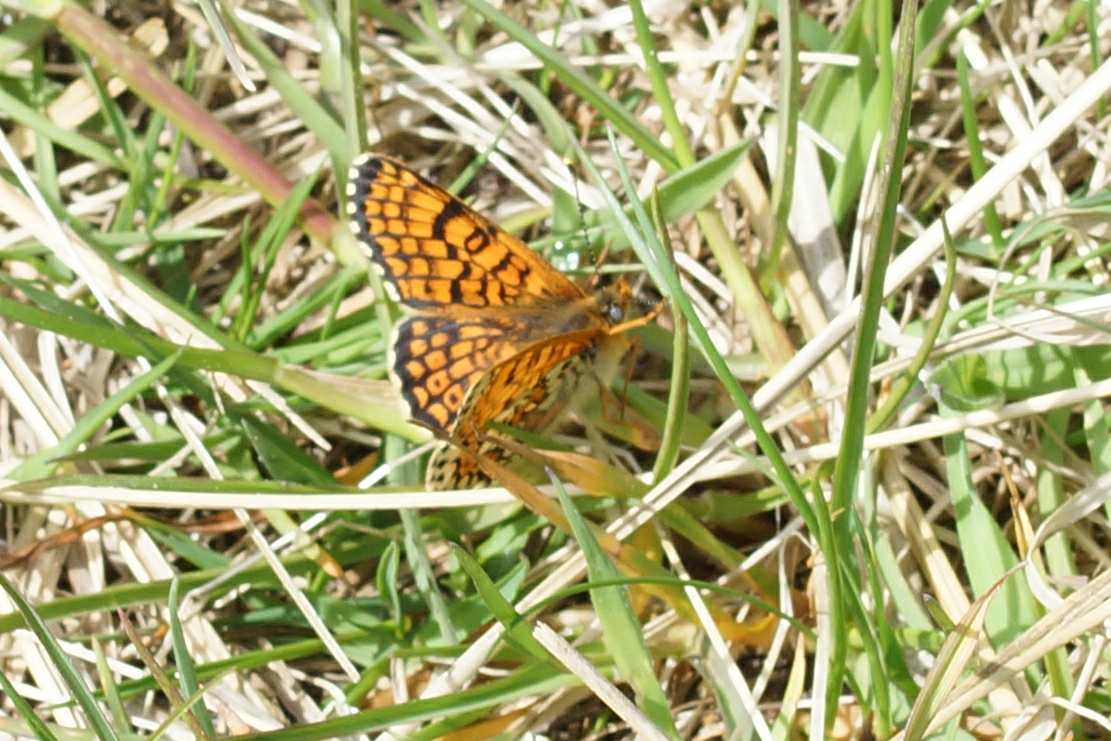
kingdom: Animalia
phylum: Arthropoda
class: Insecta
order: Lepidoptera
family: Nymphalidae
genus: Melitaea
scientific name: Melitaea cinxia
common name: Okkergul pletvinge
